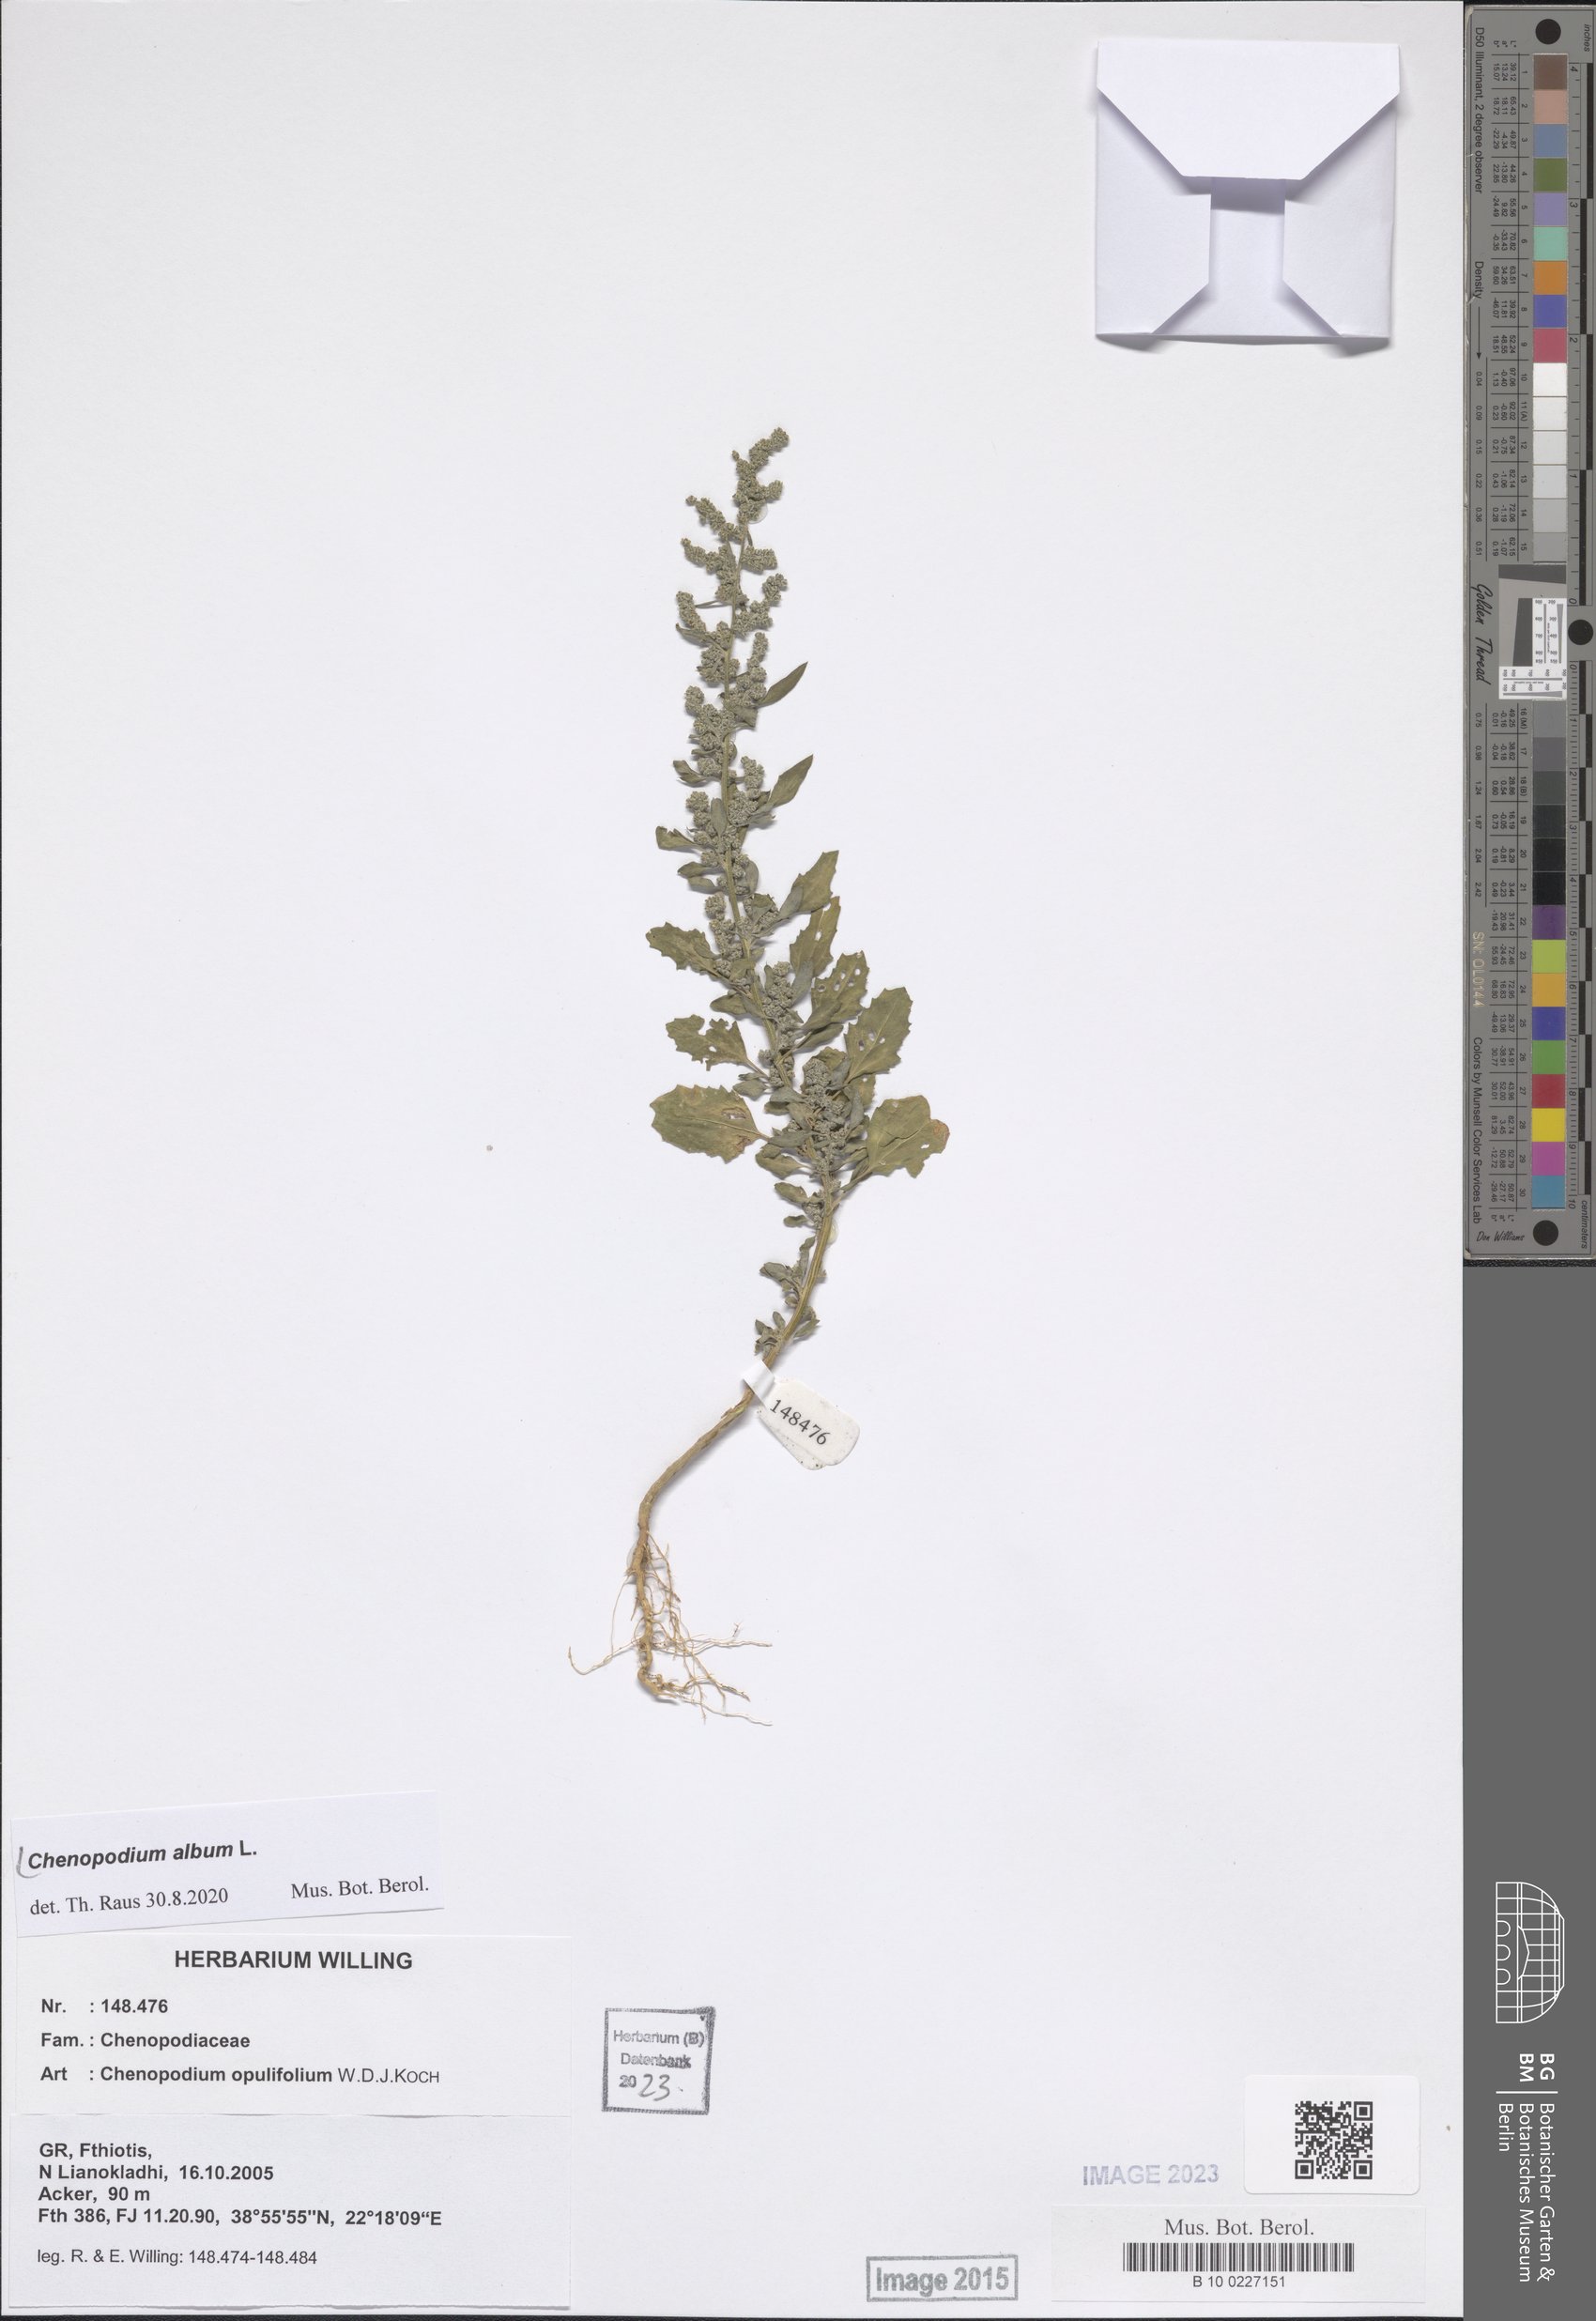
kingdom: Plantae
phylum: Tracheophyta
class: Magnoliopsida
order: Caryophyllales
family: Amaranthaceae
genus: Chenopodium
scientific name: Chenopodium album
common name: Fat-hen
